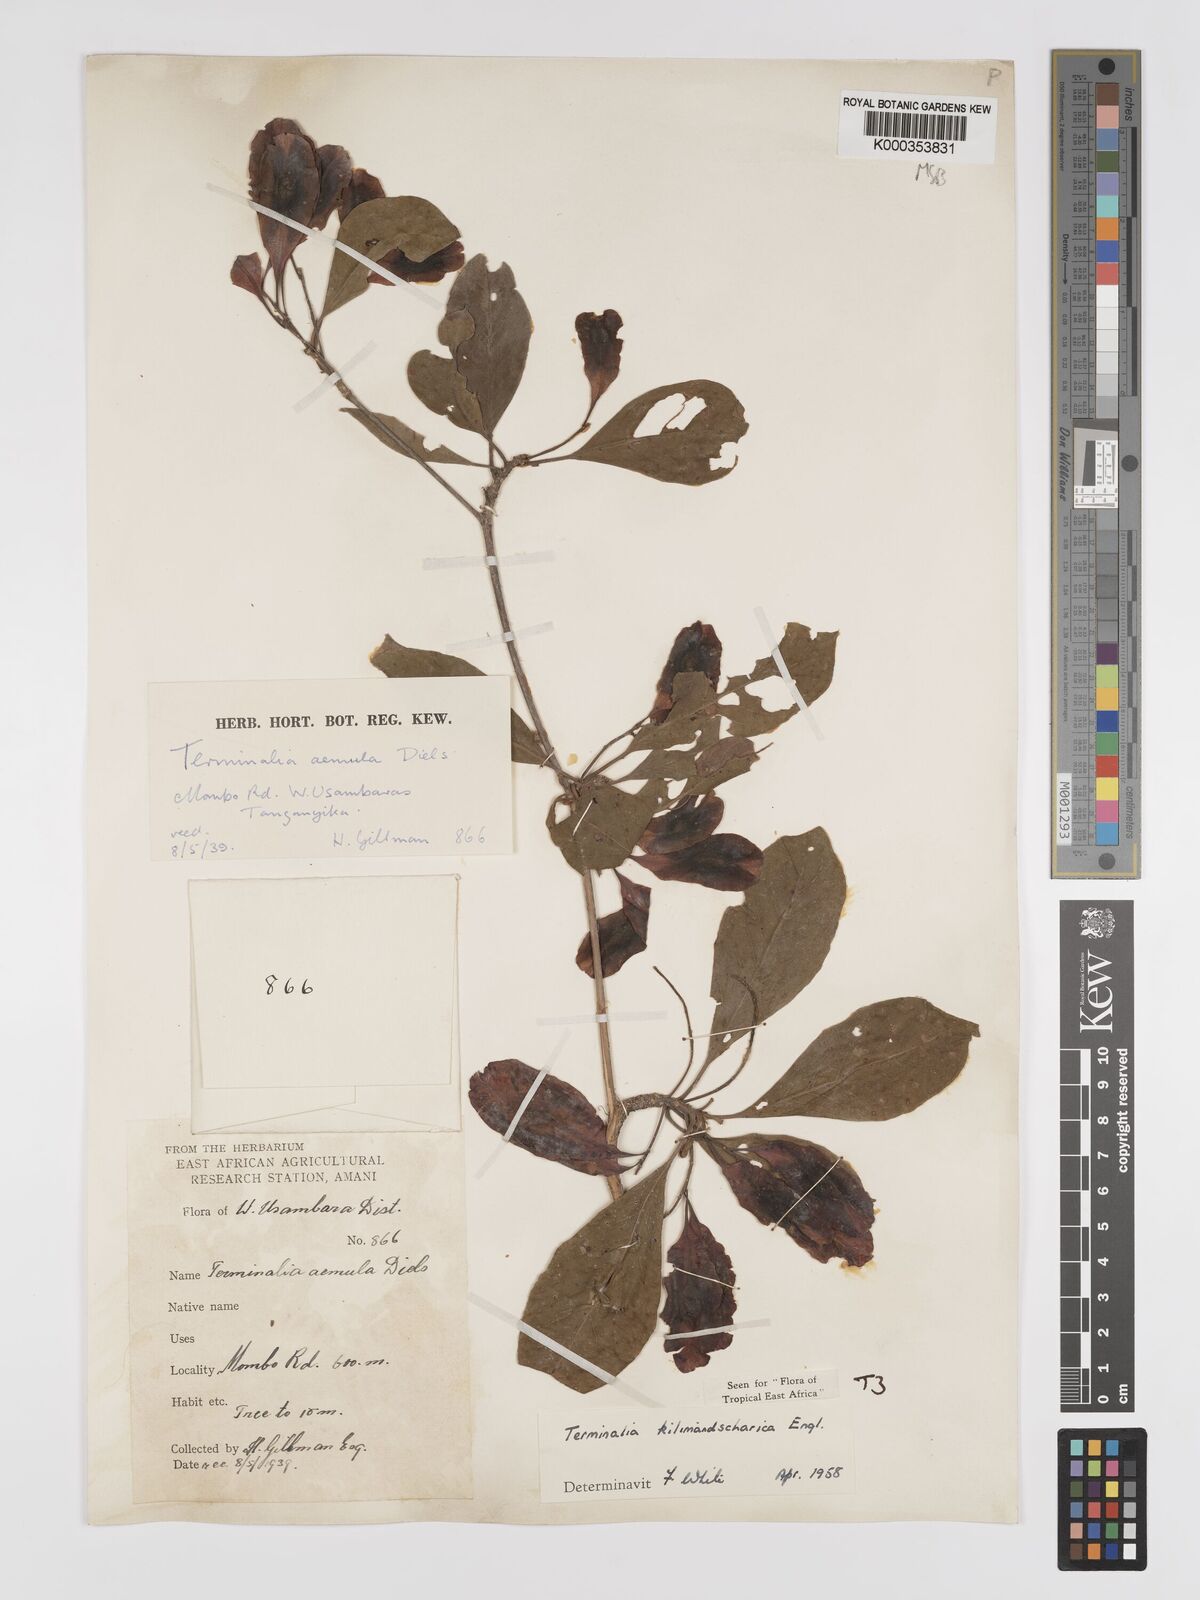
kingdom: Plantae
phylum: Tracheophyta
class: Magnoliopsida
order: Myrtales
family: Combretaceae
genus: Terminalia
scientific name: Terminalia kilimandscharica
